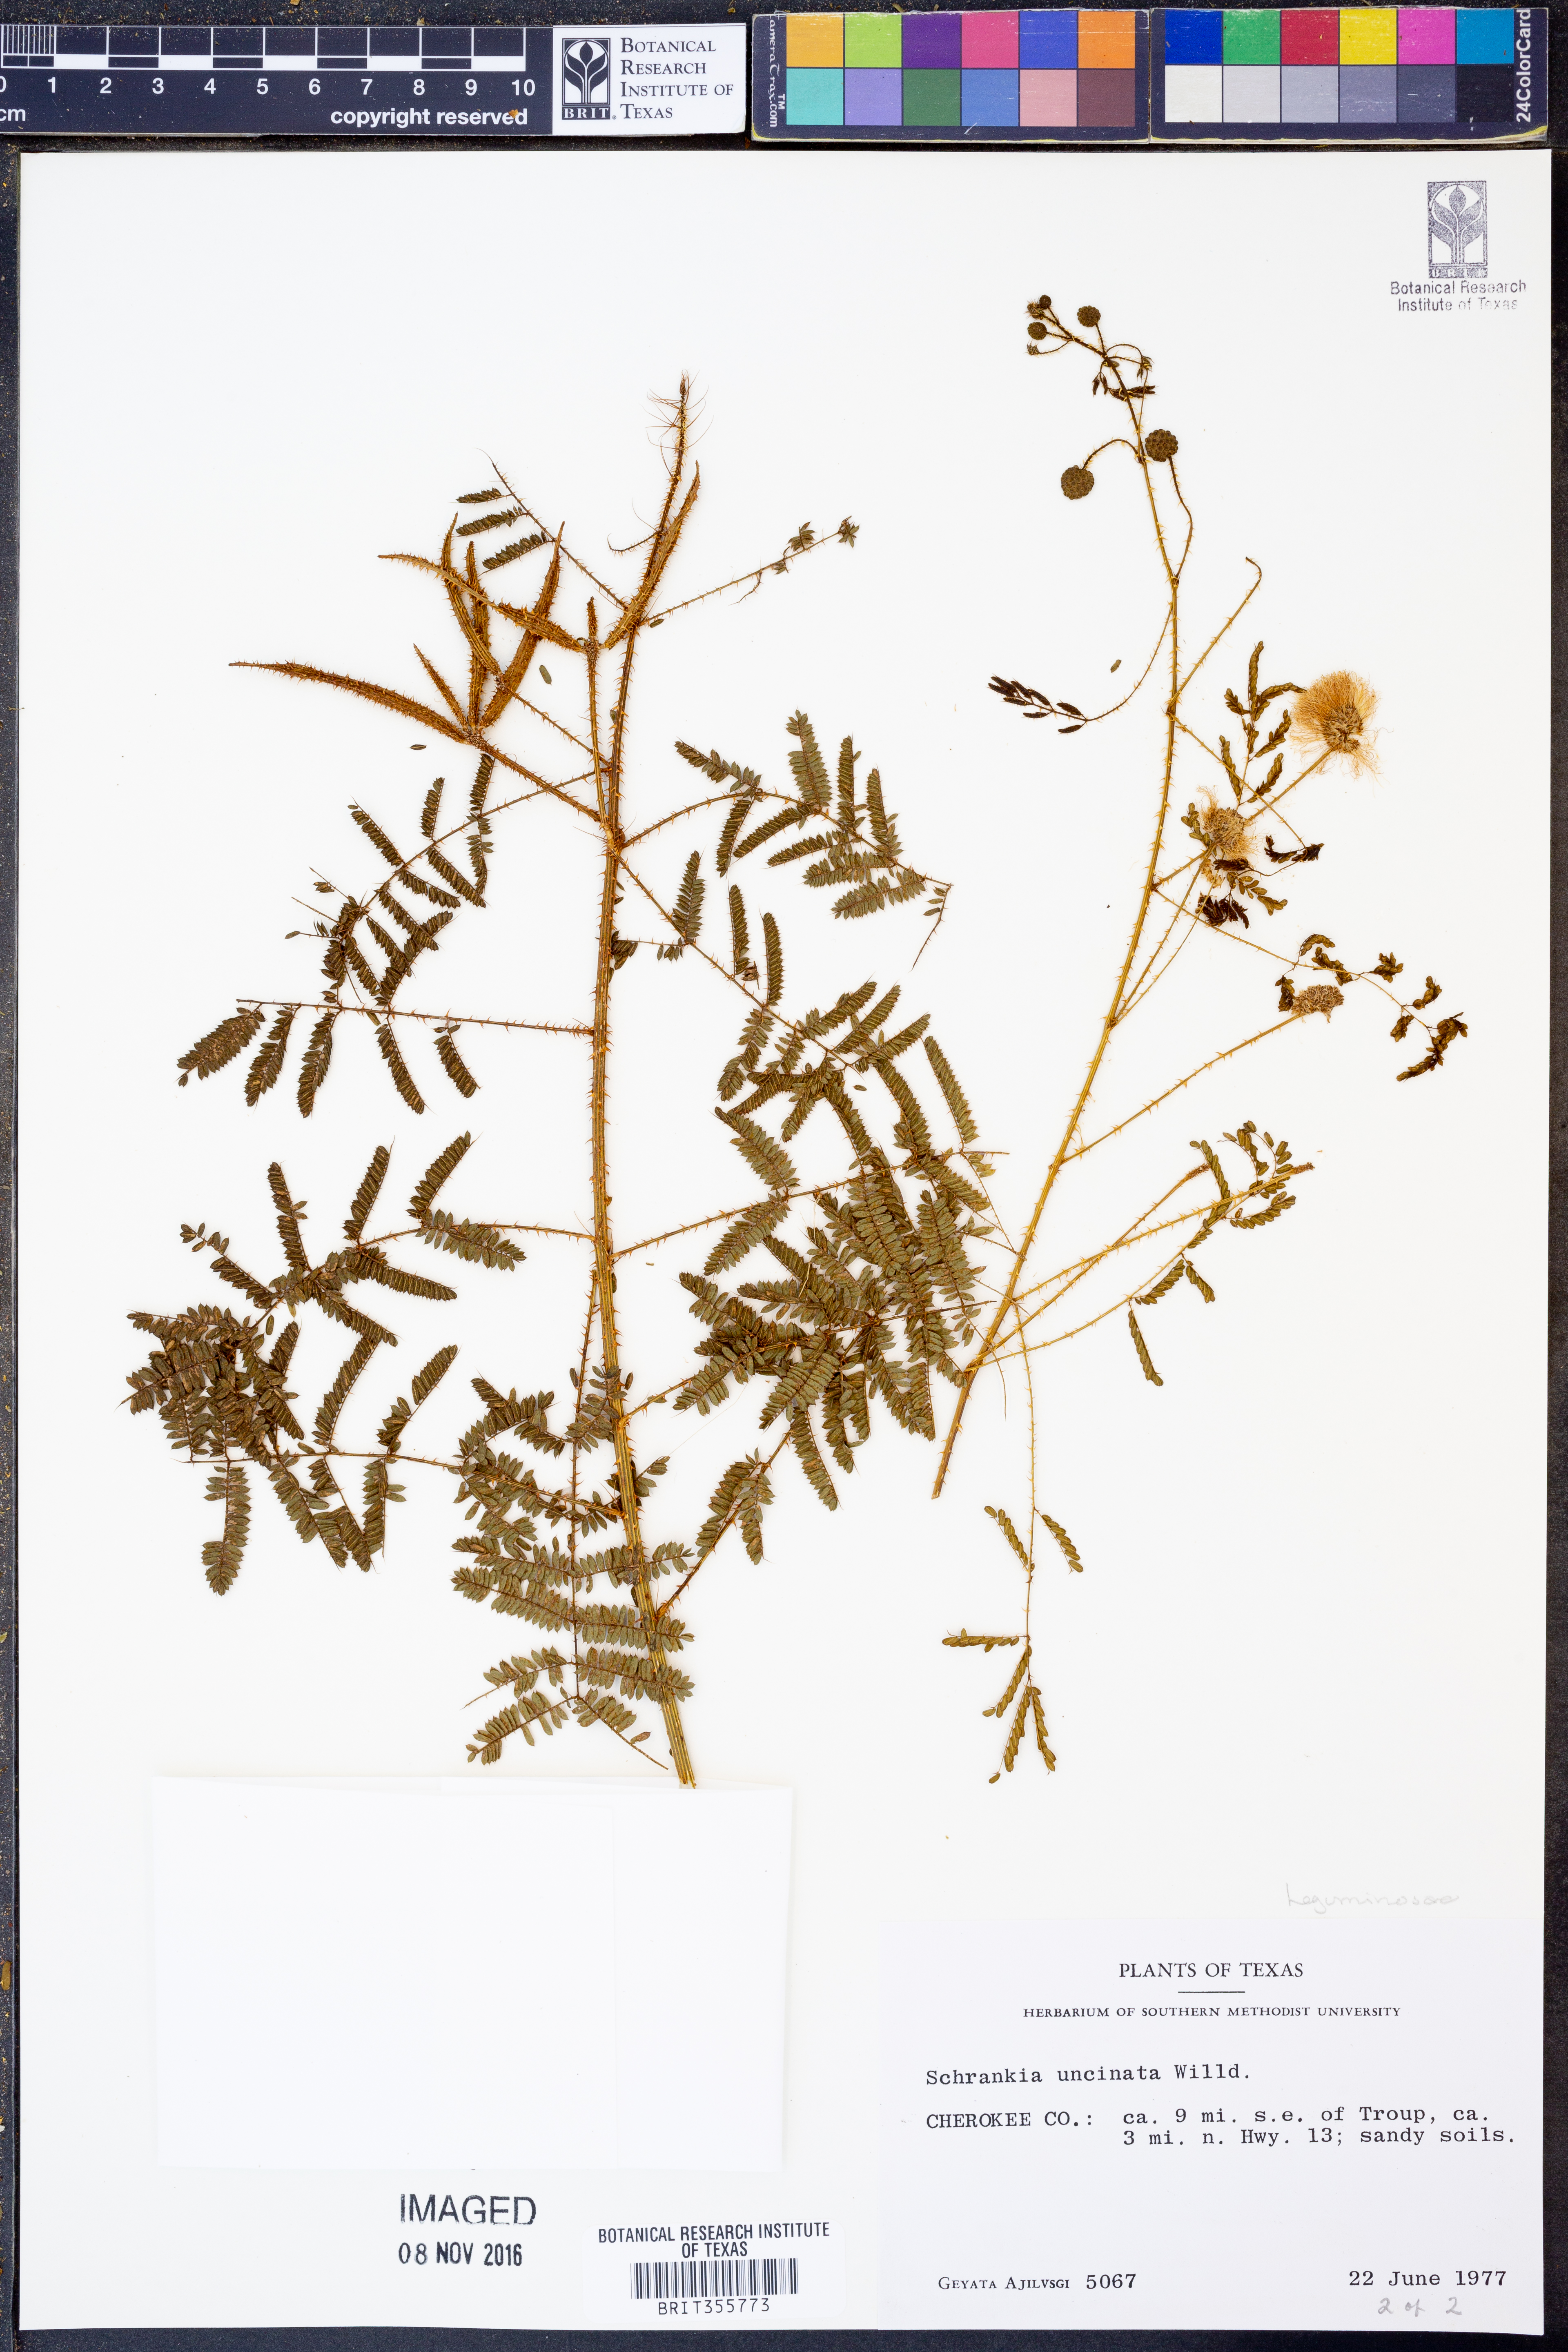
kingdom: Plantae
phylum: Tracheophyta
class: Magnoliopsida
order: Fabales
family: Fabaceae
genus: Mimosa
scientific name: Mimosa quadrivalvis
